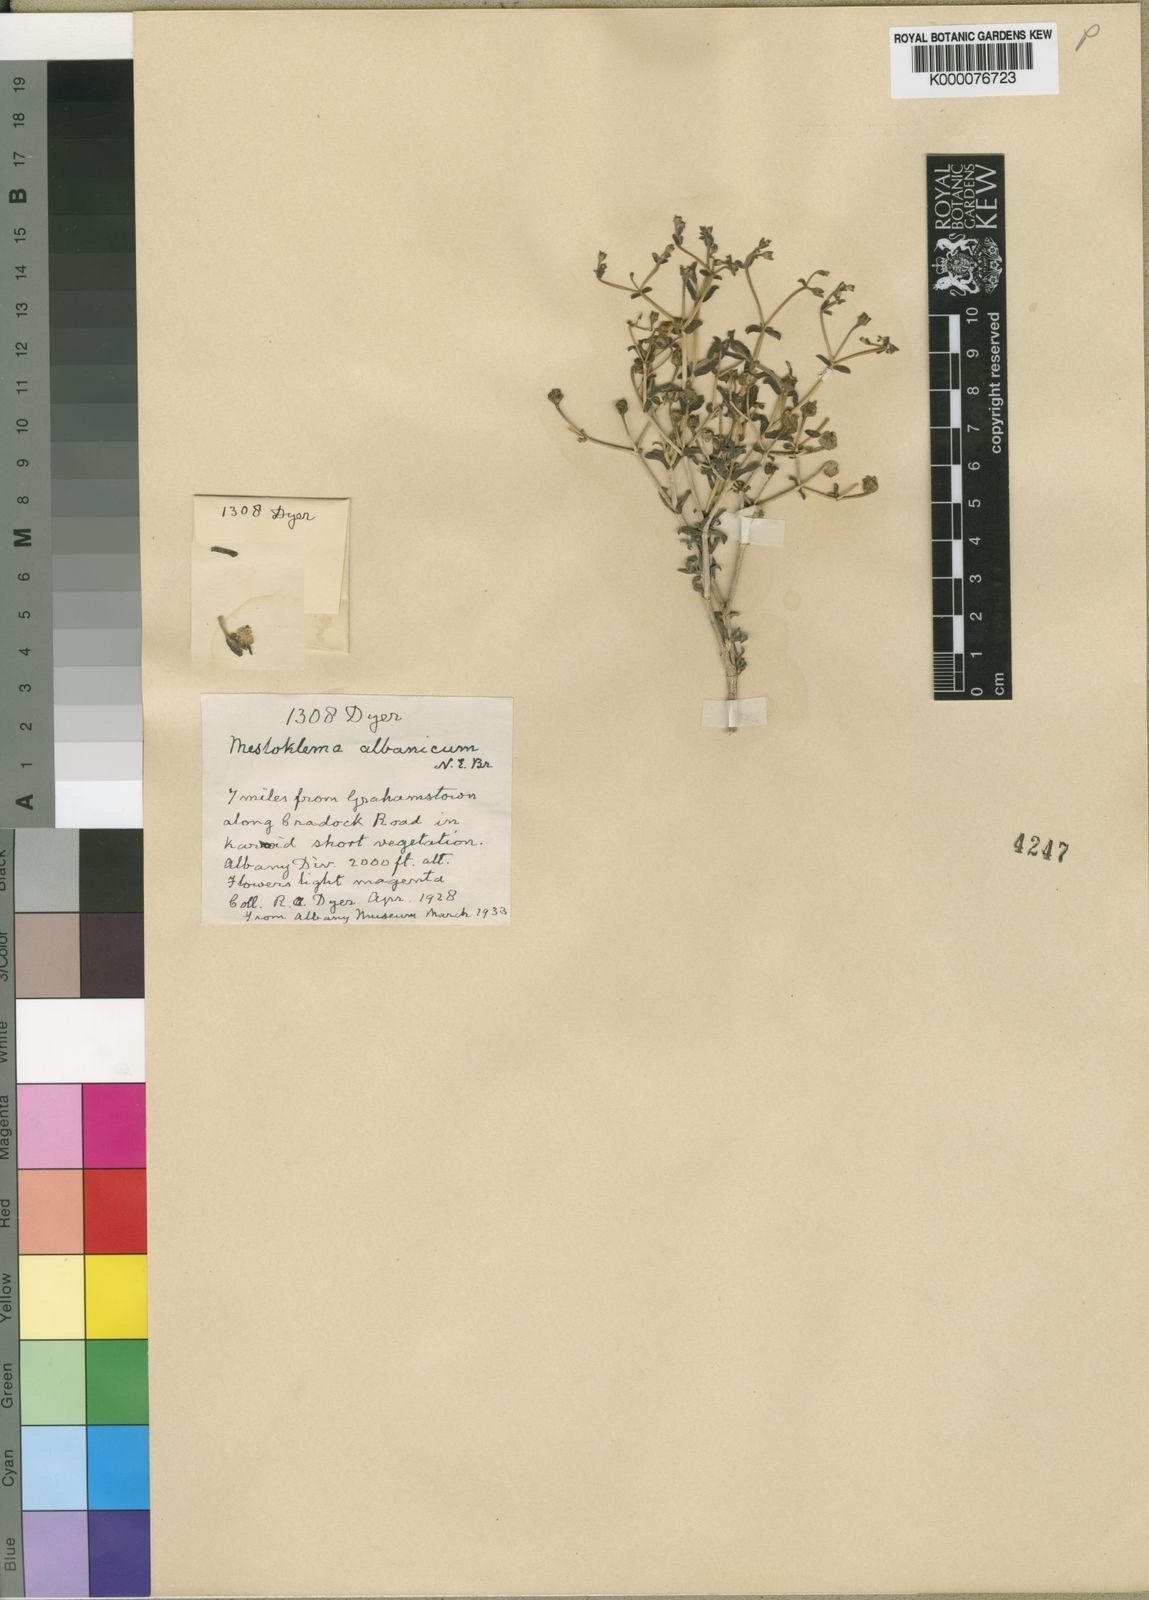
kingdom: Plantae
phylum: Tracheophyta
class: Magnoliopsida
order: Caryophyllales
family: Aizoaceae
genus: Mestoklema
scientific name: Mestoklema
